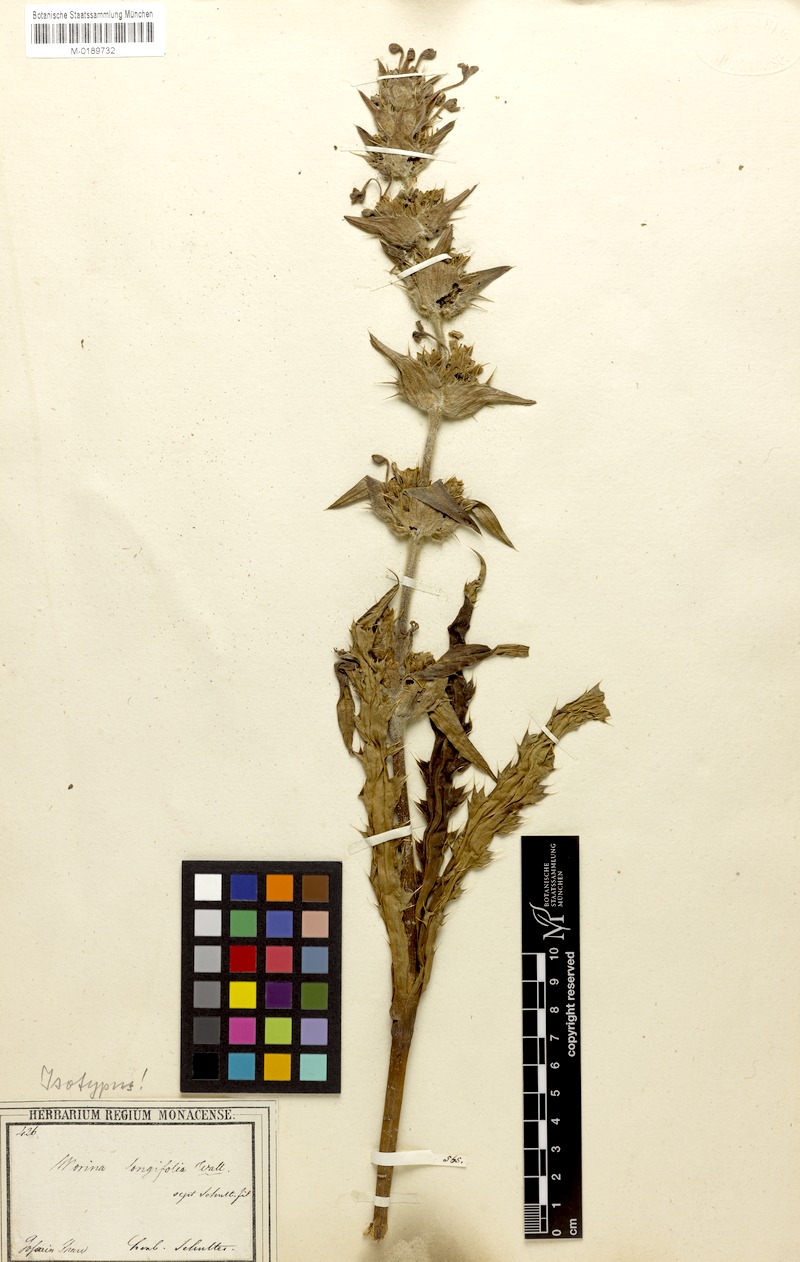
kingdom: Plantae
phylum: Tracheophyta
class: Magnoliopsida
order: Dipsacales
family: Caprifoliaceae
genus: Morina
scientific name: Morina longifolia
